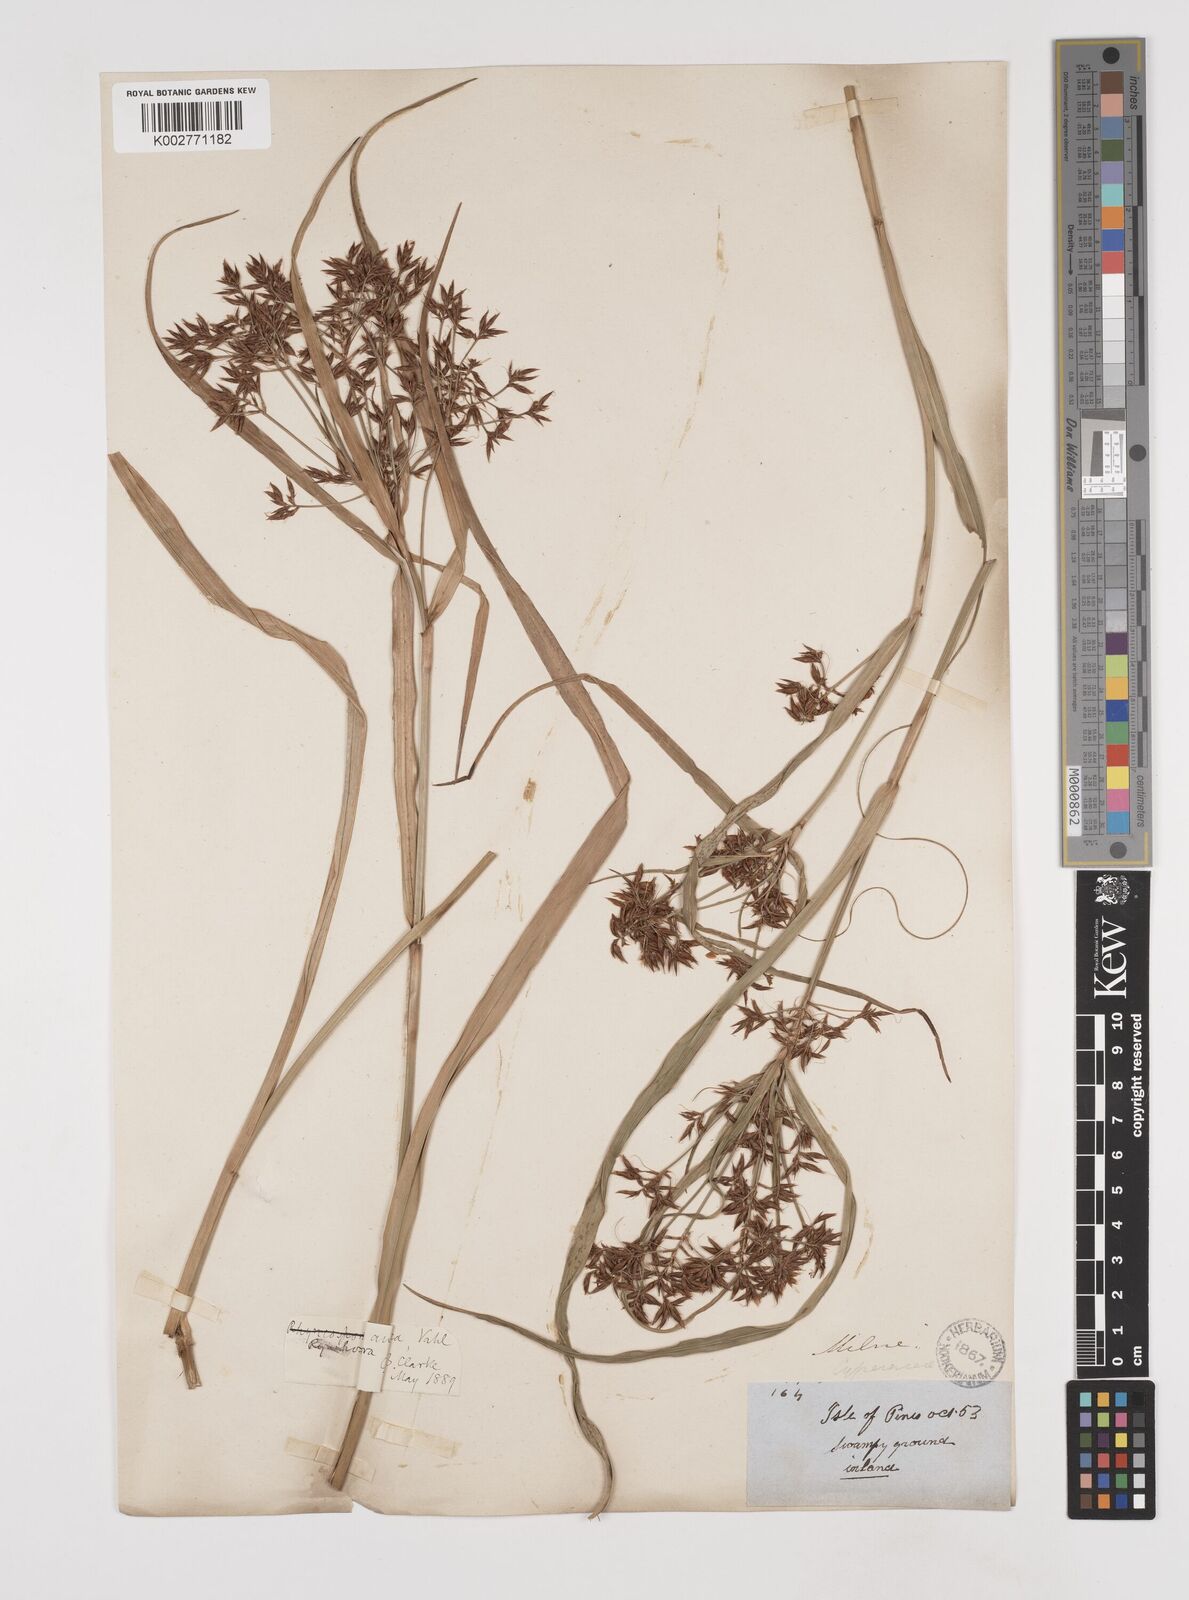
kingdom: Plantae
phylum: Tracheophyta
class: Liliopsida
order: Poales
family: Cyperaceae
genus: Rhynchospora
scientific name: Rhynchospora corymbosa
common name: Golden beak sedge
